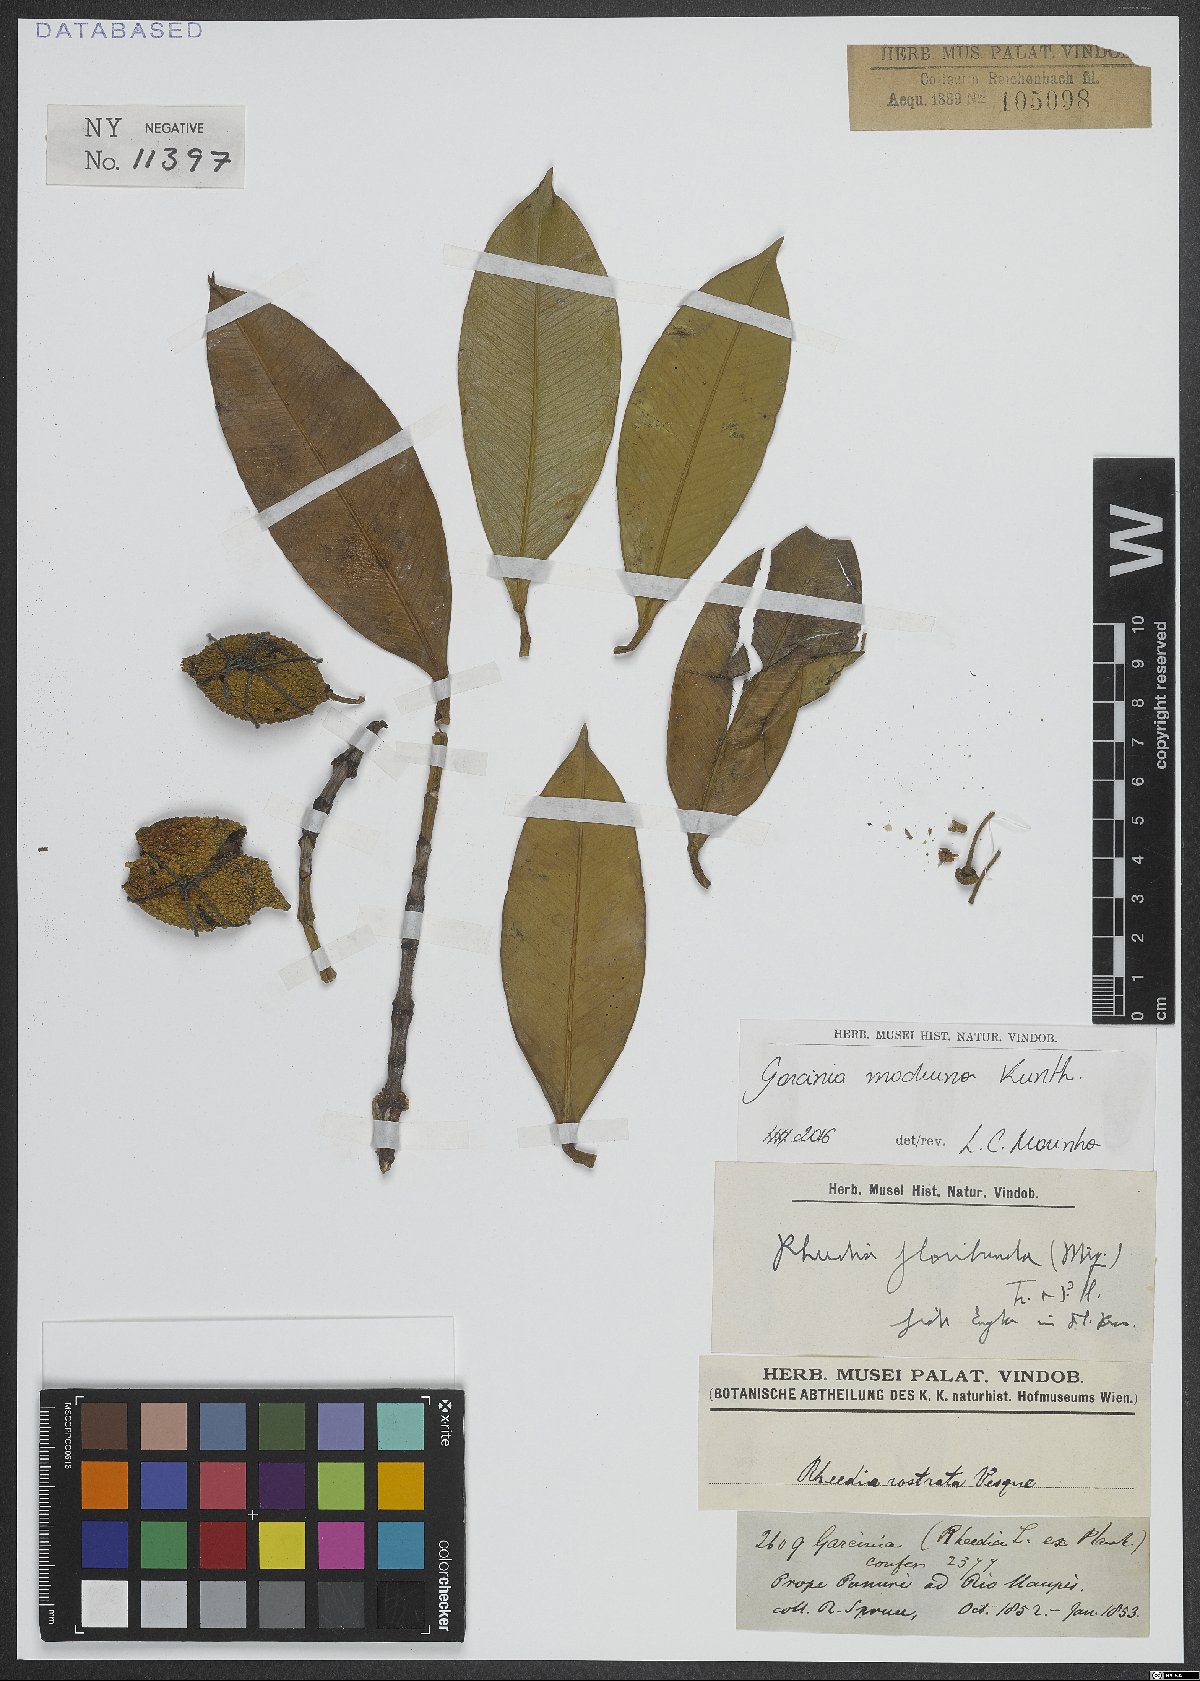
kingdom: Plantae
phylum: Tracheophyta
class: Magnoliopsida
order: Malpighiales
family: Clusiaceae
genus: Garcinia
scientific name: Garcinia madruno
